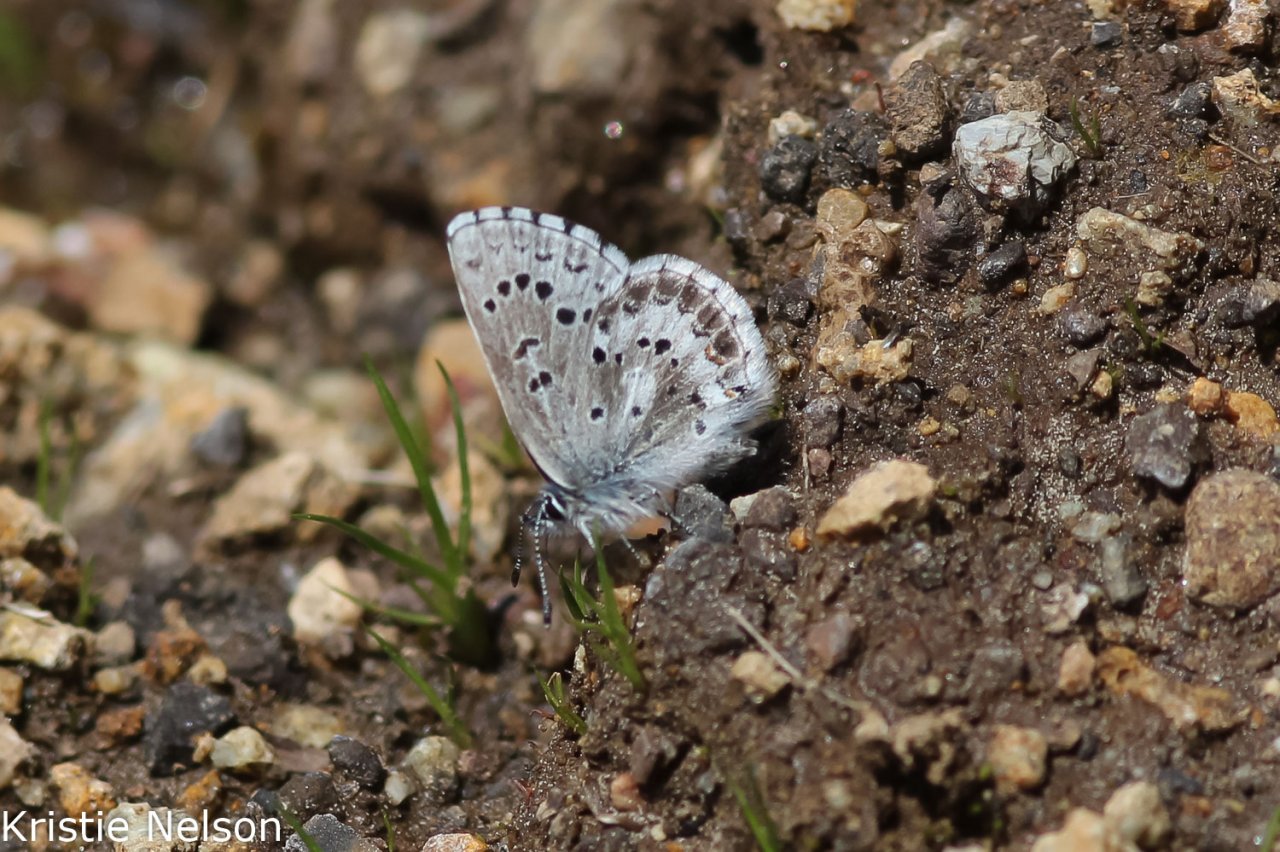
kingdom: Animalia
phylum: Arthropoda
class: Insecta
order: Lepidoptera
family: Lycaenidae
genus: Glaucopsyche
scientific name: Glaucopsyche piasus
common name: Arrowhead Blue
